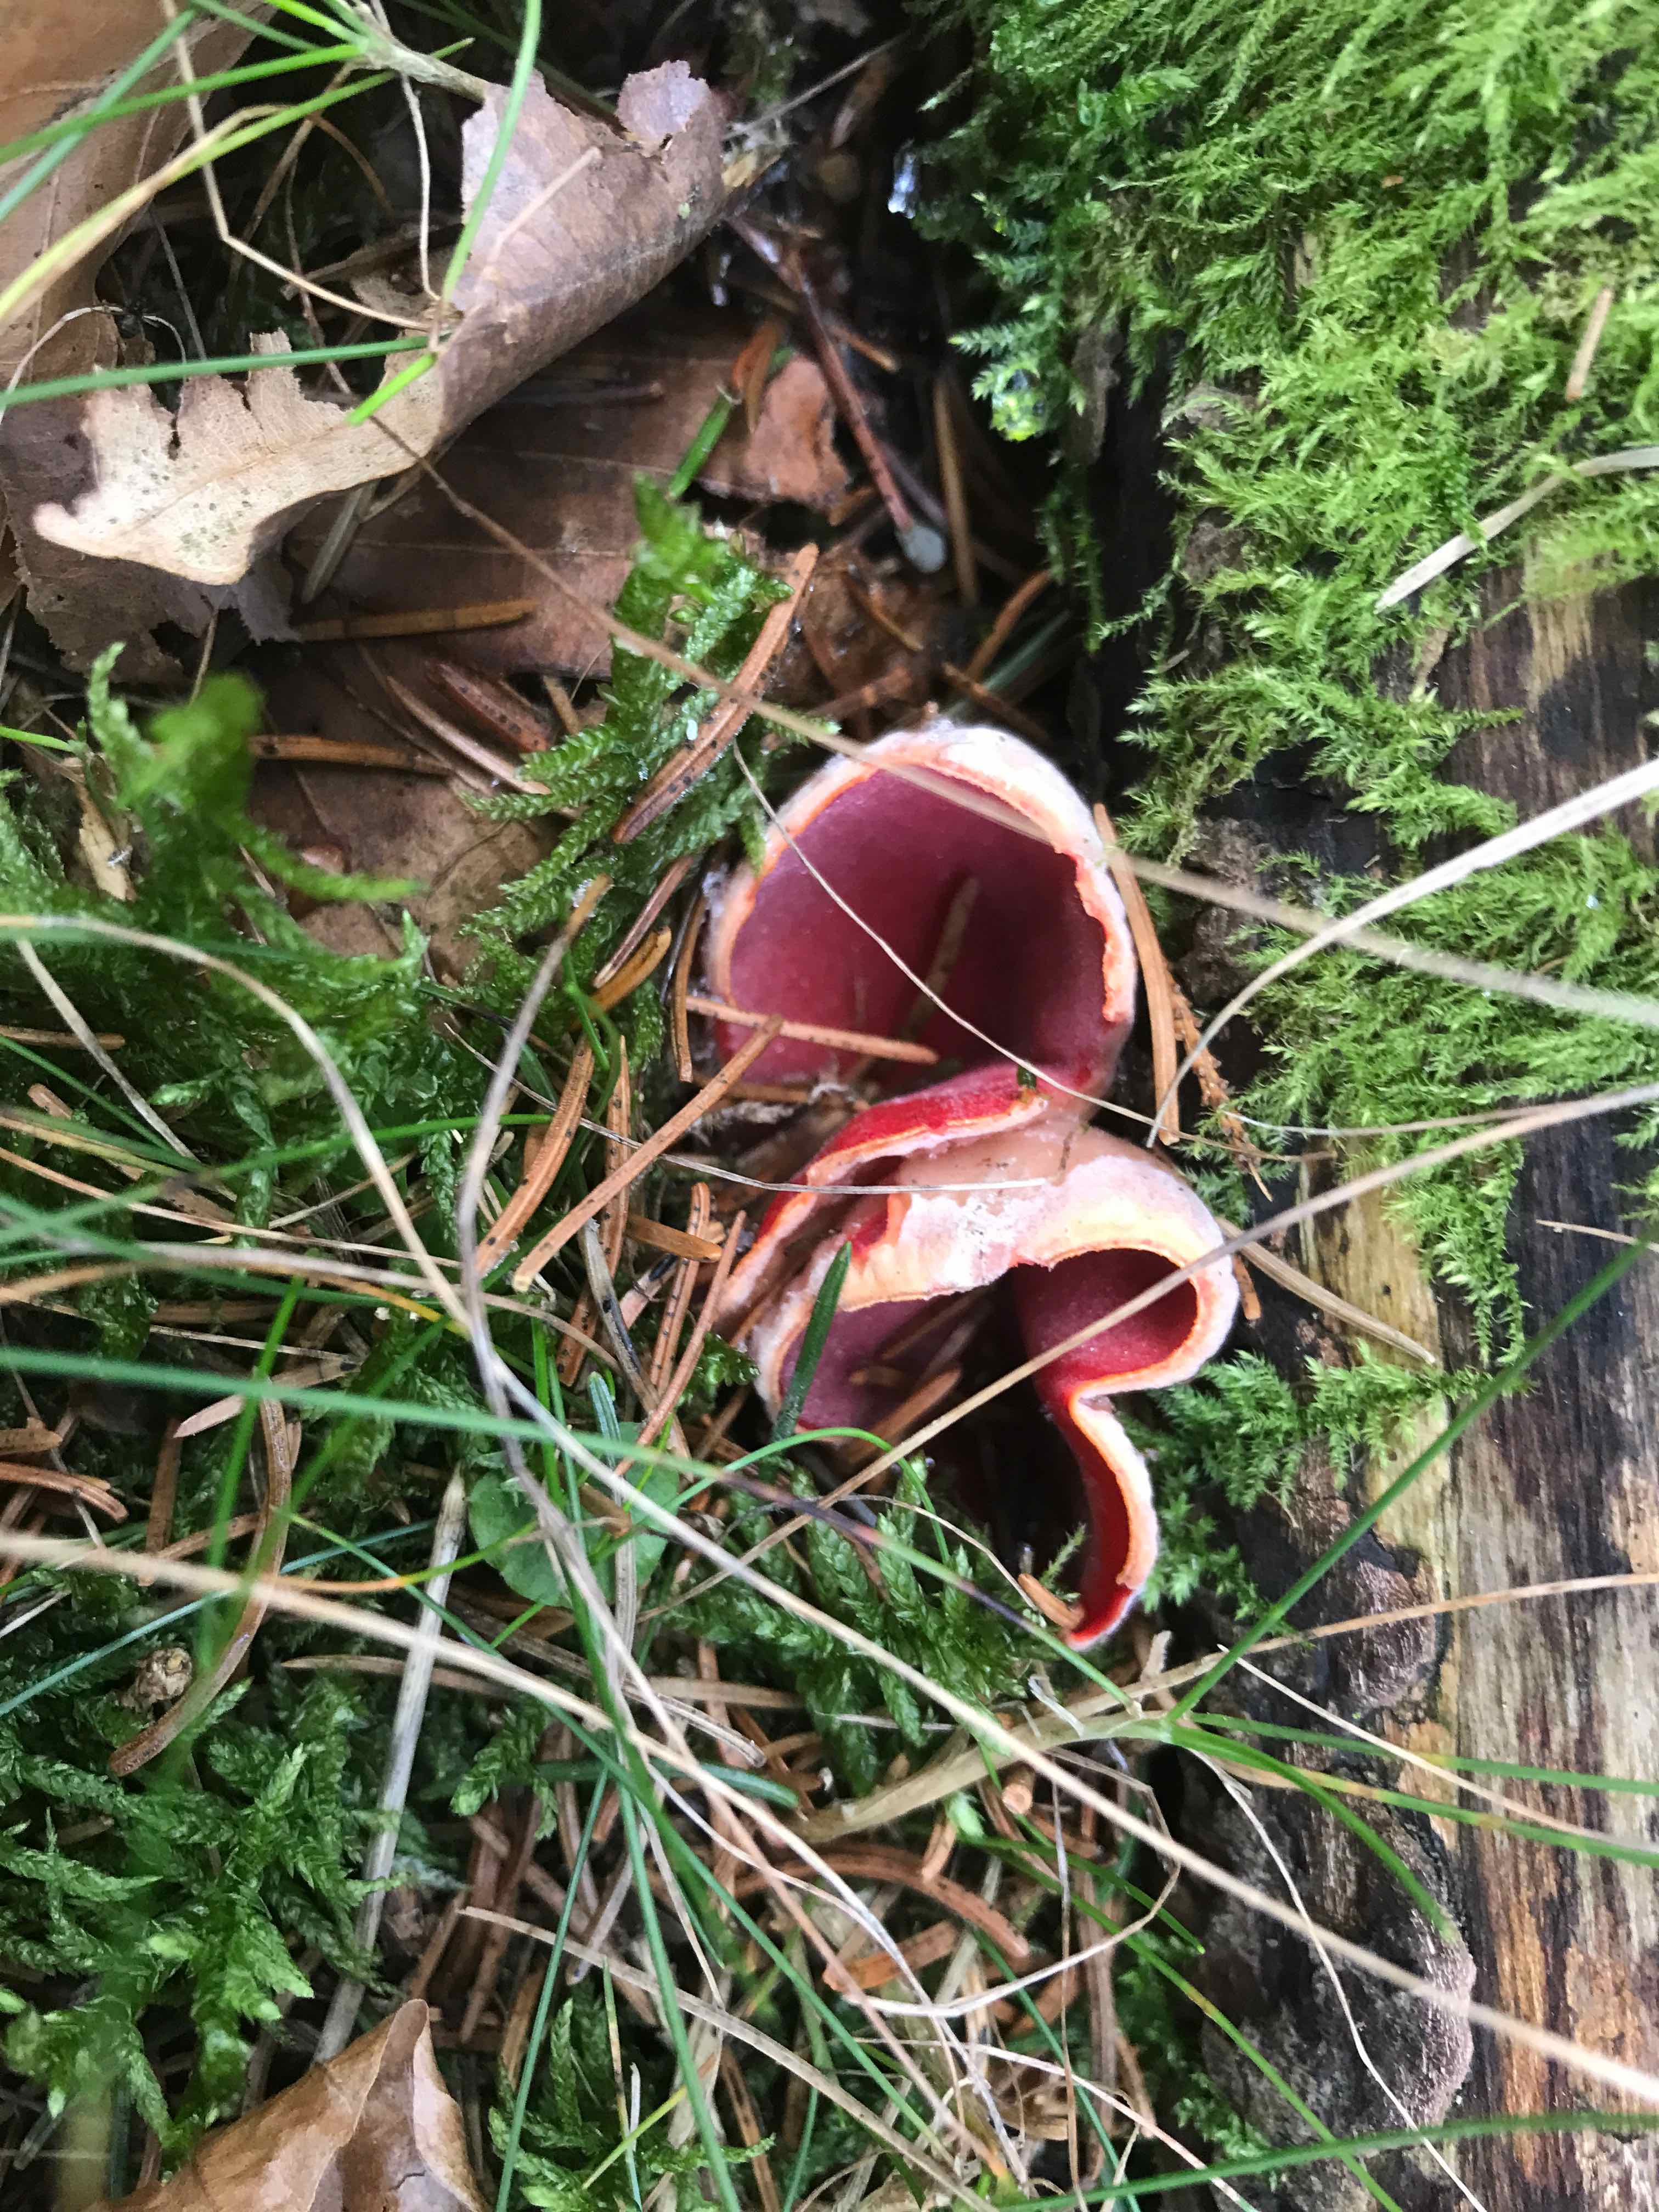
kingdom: Fungi
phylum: Ascomycota
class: Pezizomycetes
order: Pezizales
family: Sarcoscyphaceae
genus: Sarcoscypha
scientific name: Sarcoscypha austriaca
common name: krølhåret pragtbæger
